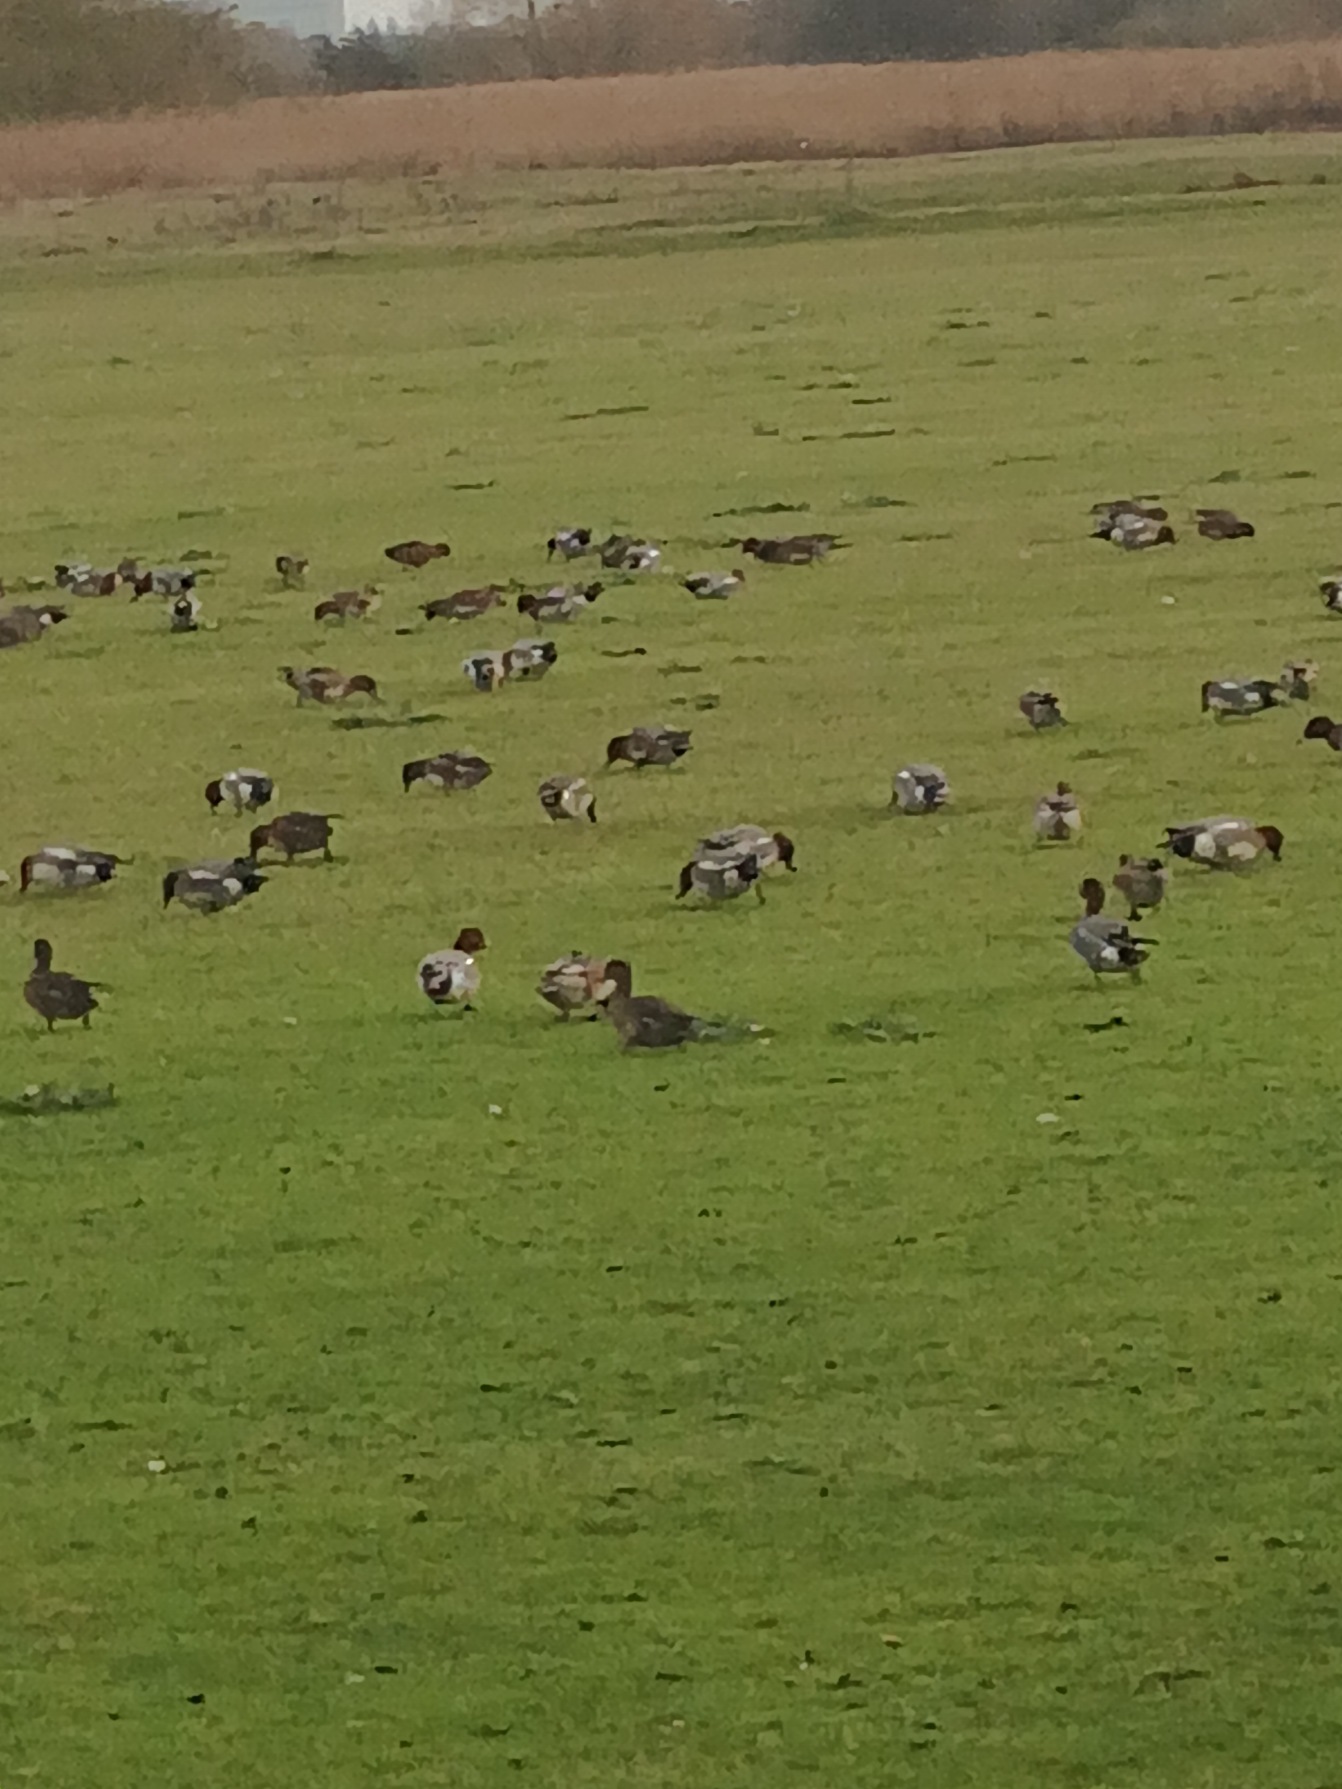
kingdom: Animalia
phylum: Chordata
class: Aves
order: Anseriformes
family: Anatidae
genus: Mareca
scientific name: Mareca penelope
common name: Pibeand
